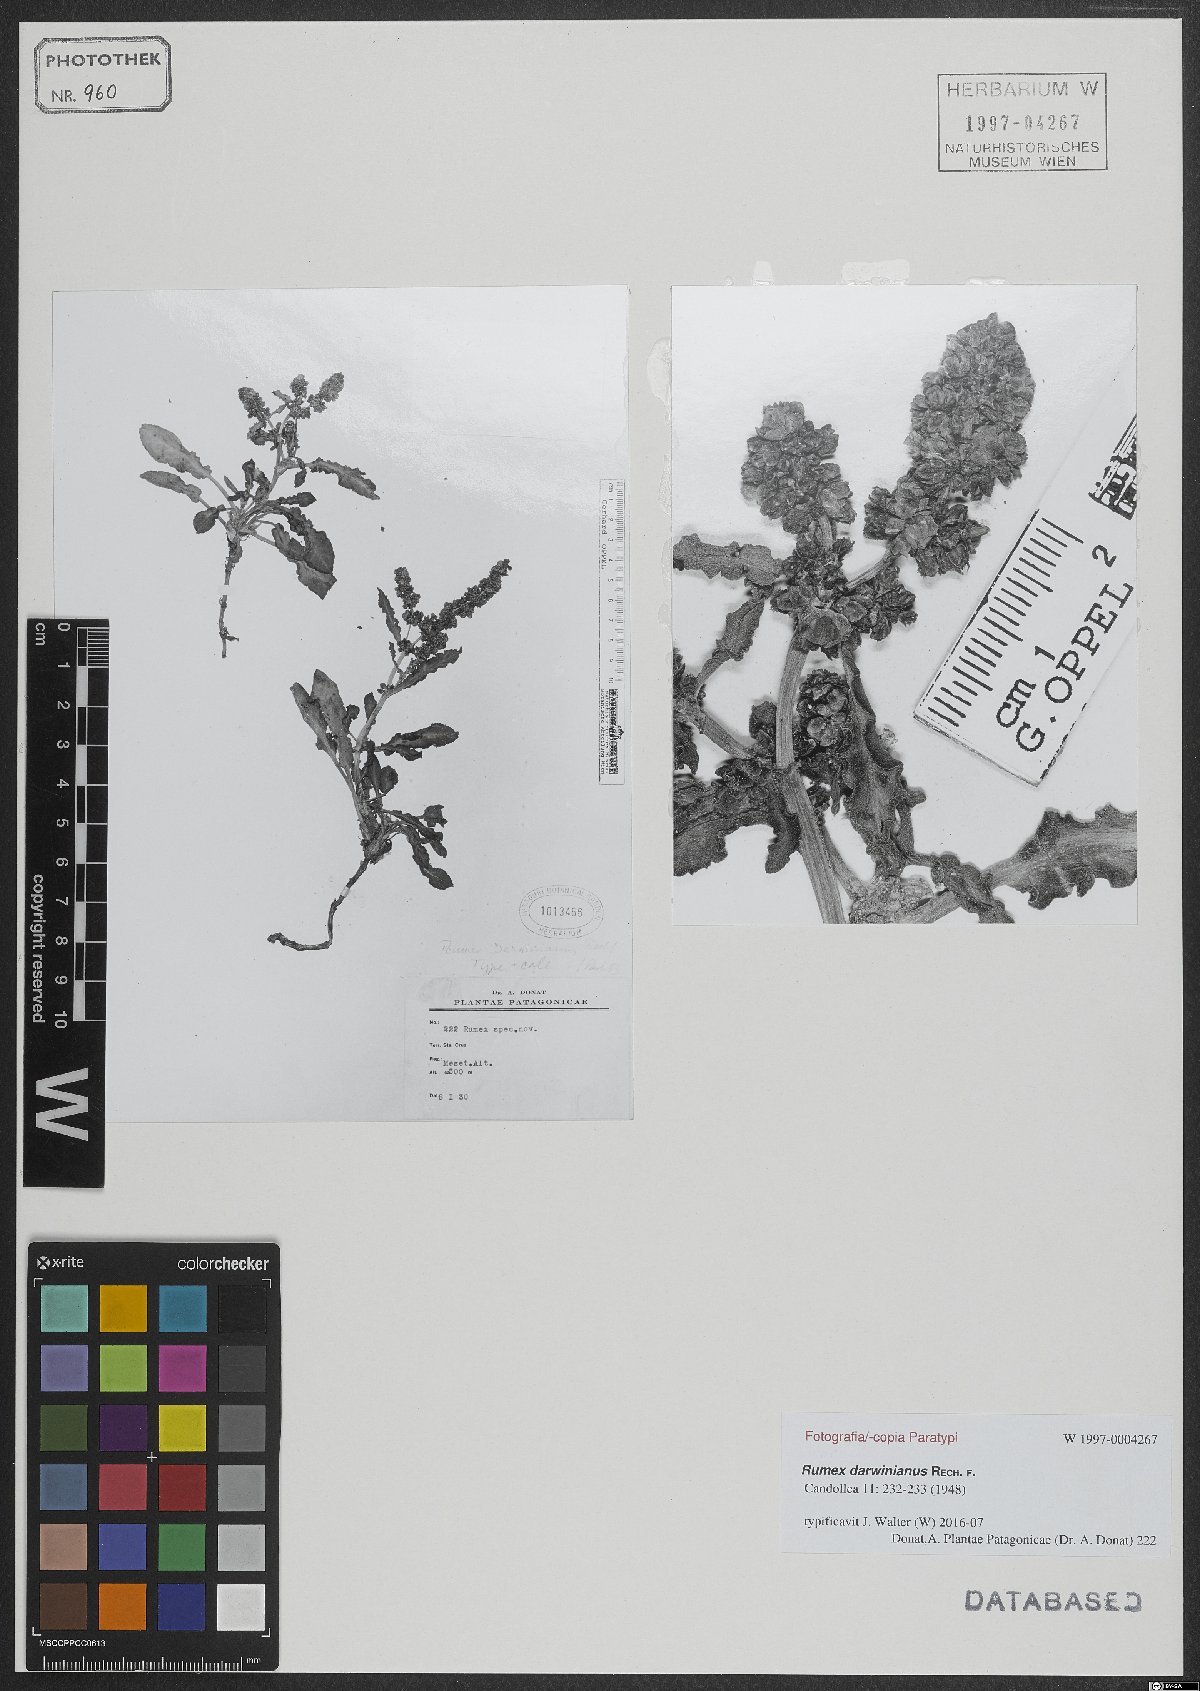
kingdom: Plantae
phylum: Tracheophyta
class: Magnoliopsida
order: Caryophyllales
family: Polygonaceae
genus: Rumex
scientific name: Rumex darwinianus
